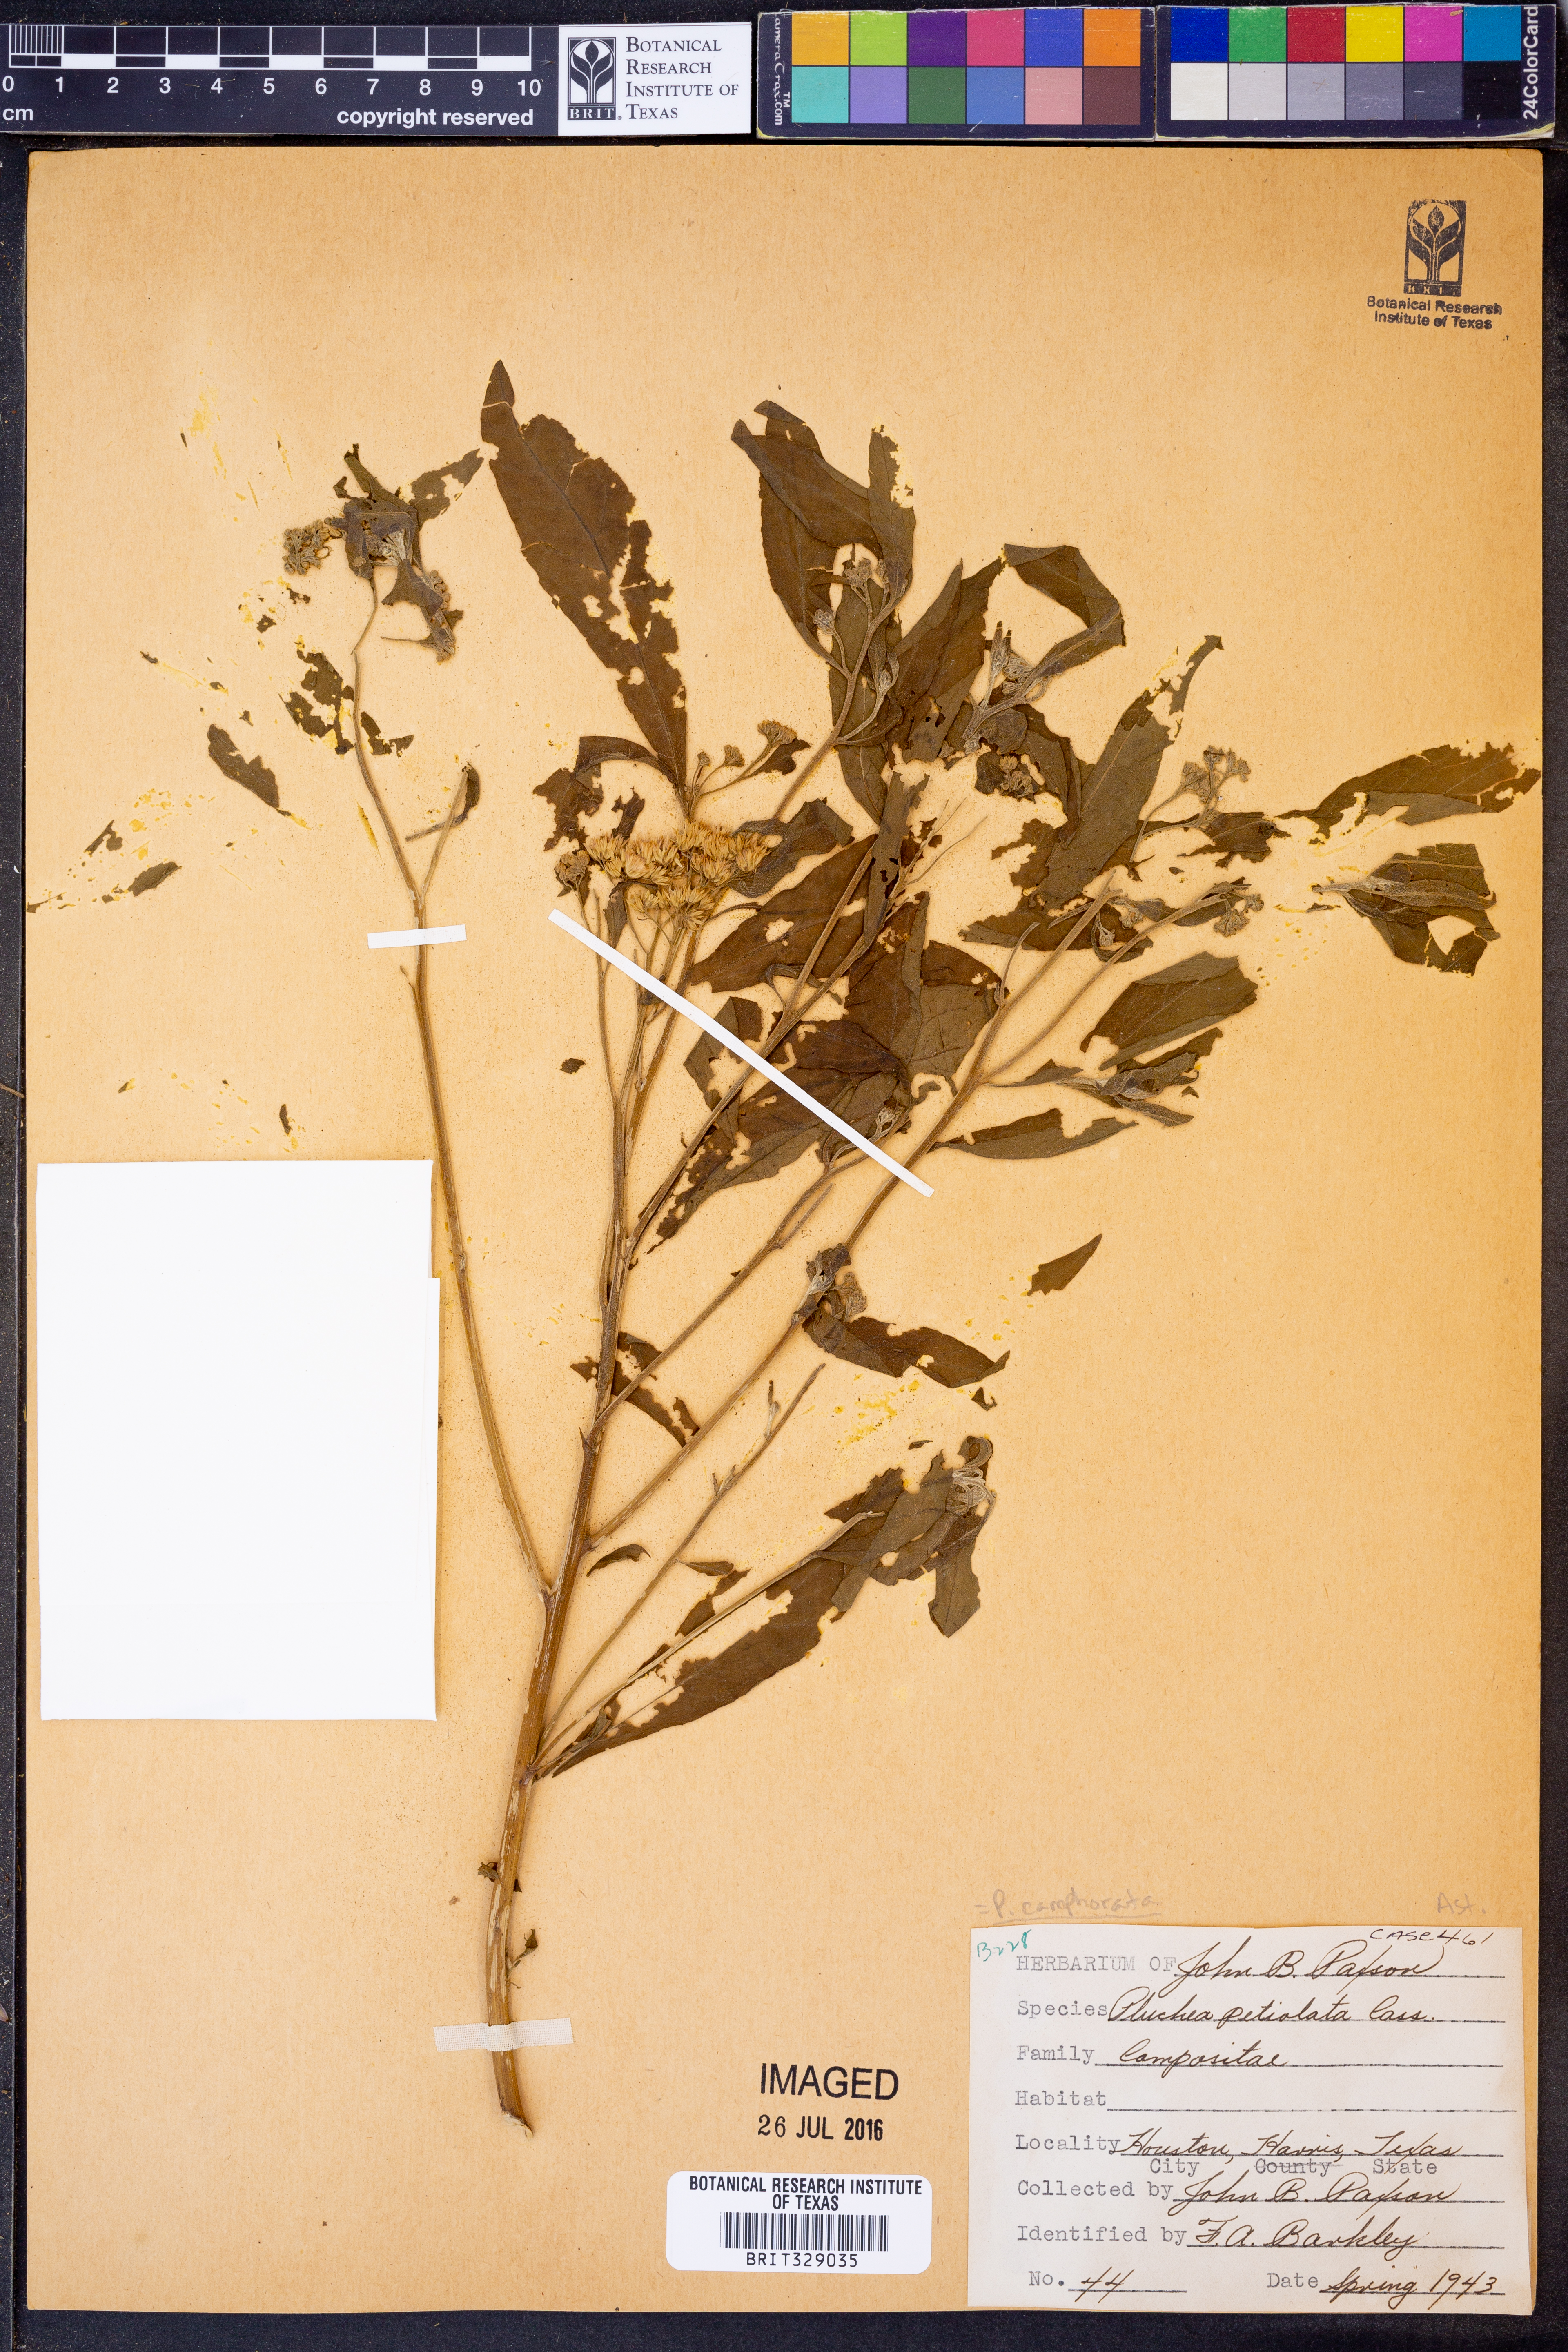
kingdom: Plantae
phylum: Tracheophyta
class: Magnoliopsida
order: Asterales
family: Asteraceae
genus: Pluchea
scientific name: Pluchea camphorata
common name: Camphor pluchea
